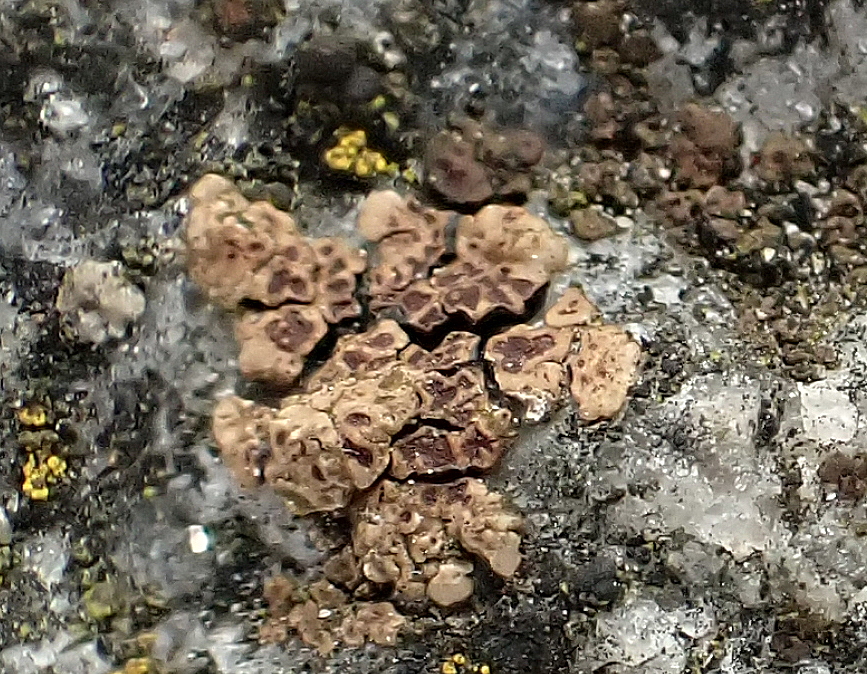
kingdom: Fungi
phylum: Ascomycota
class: Lecanoromycetes
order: Acarosporales
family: Acarosporaceae
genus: Acarospora
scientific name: Acarospora fuscata
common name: brun småsporelav
